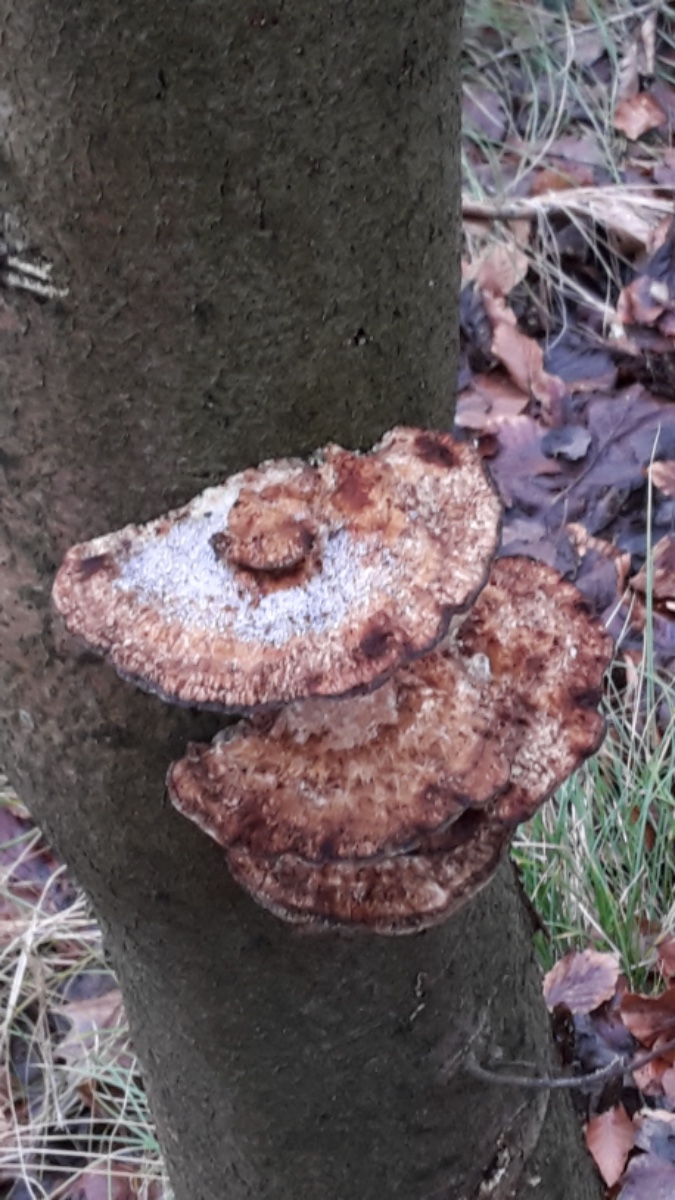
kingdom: Fungi
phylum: Basidiomycota
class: Agaricomycetes
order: Polyporales
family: Polyporaceae
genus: Daedaleopsis
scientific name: Daedaleopsis confragosa
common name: rødmende læderporesvamp
